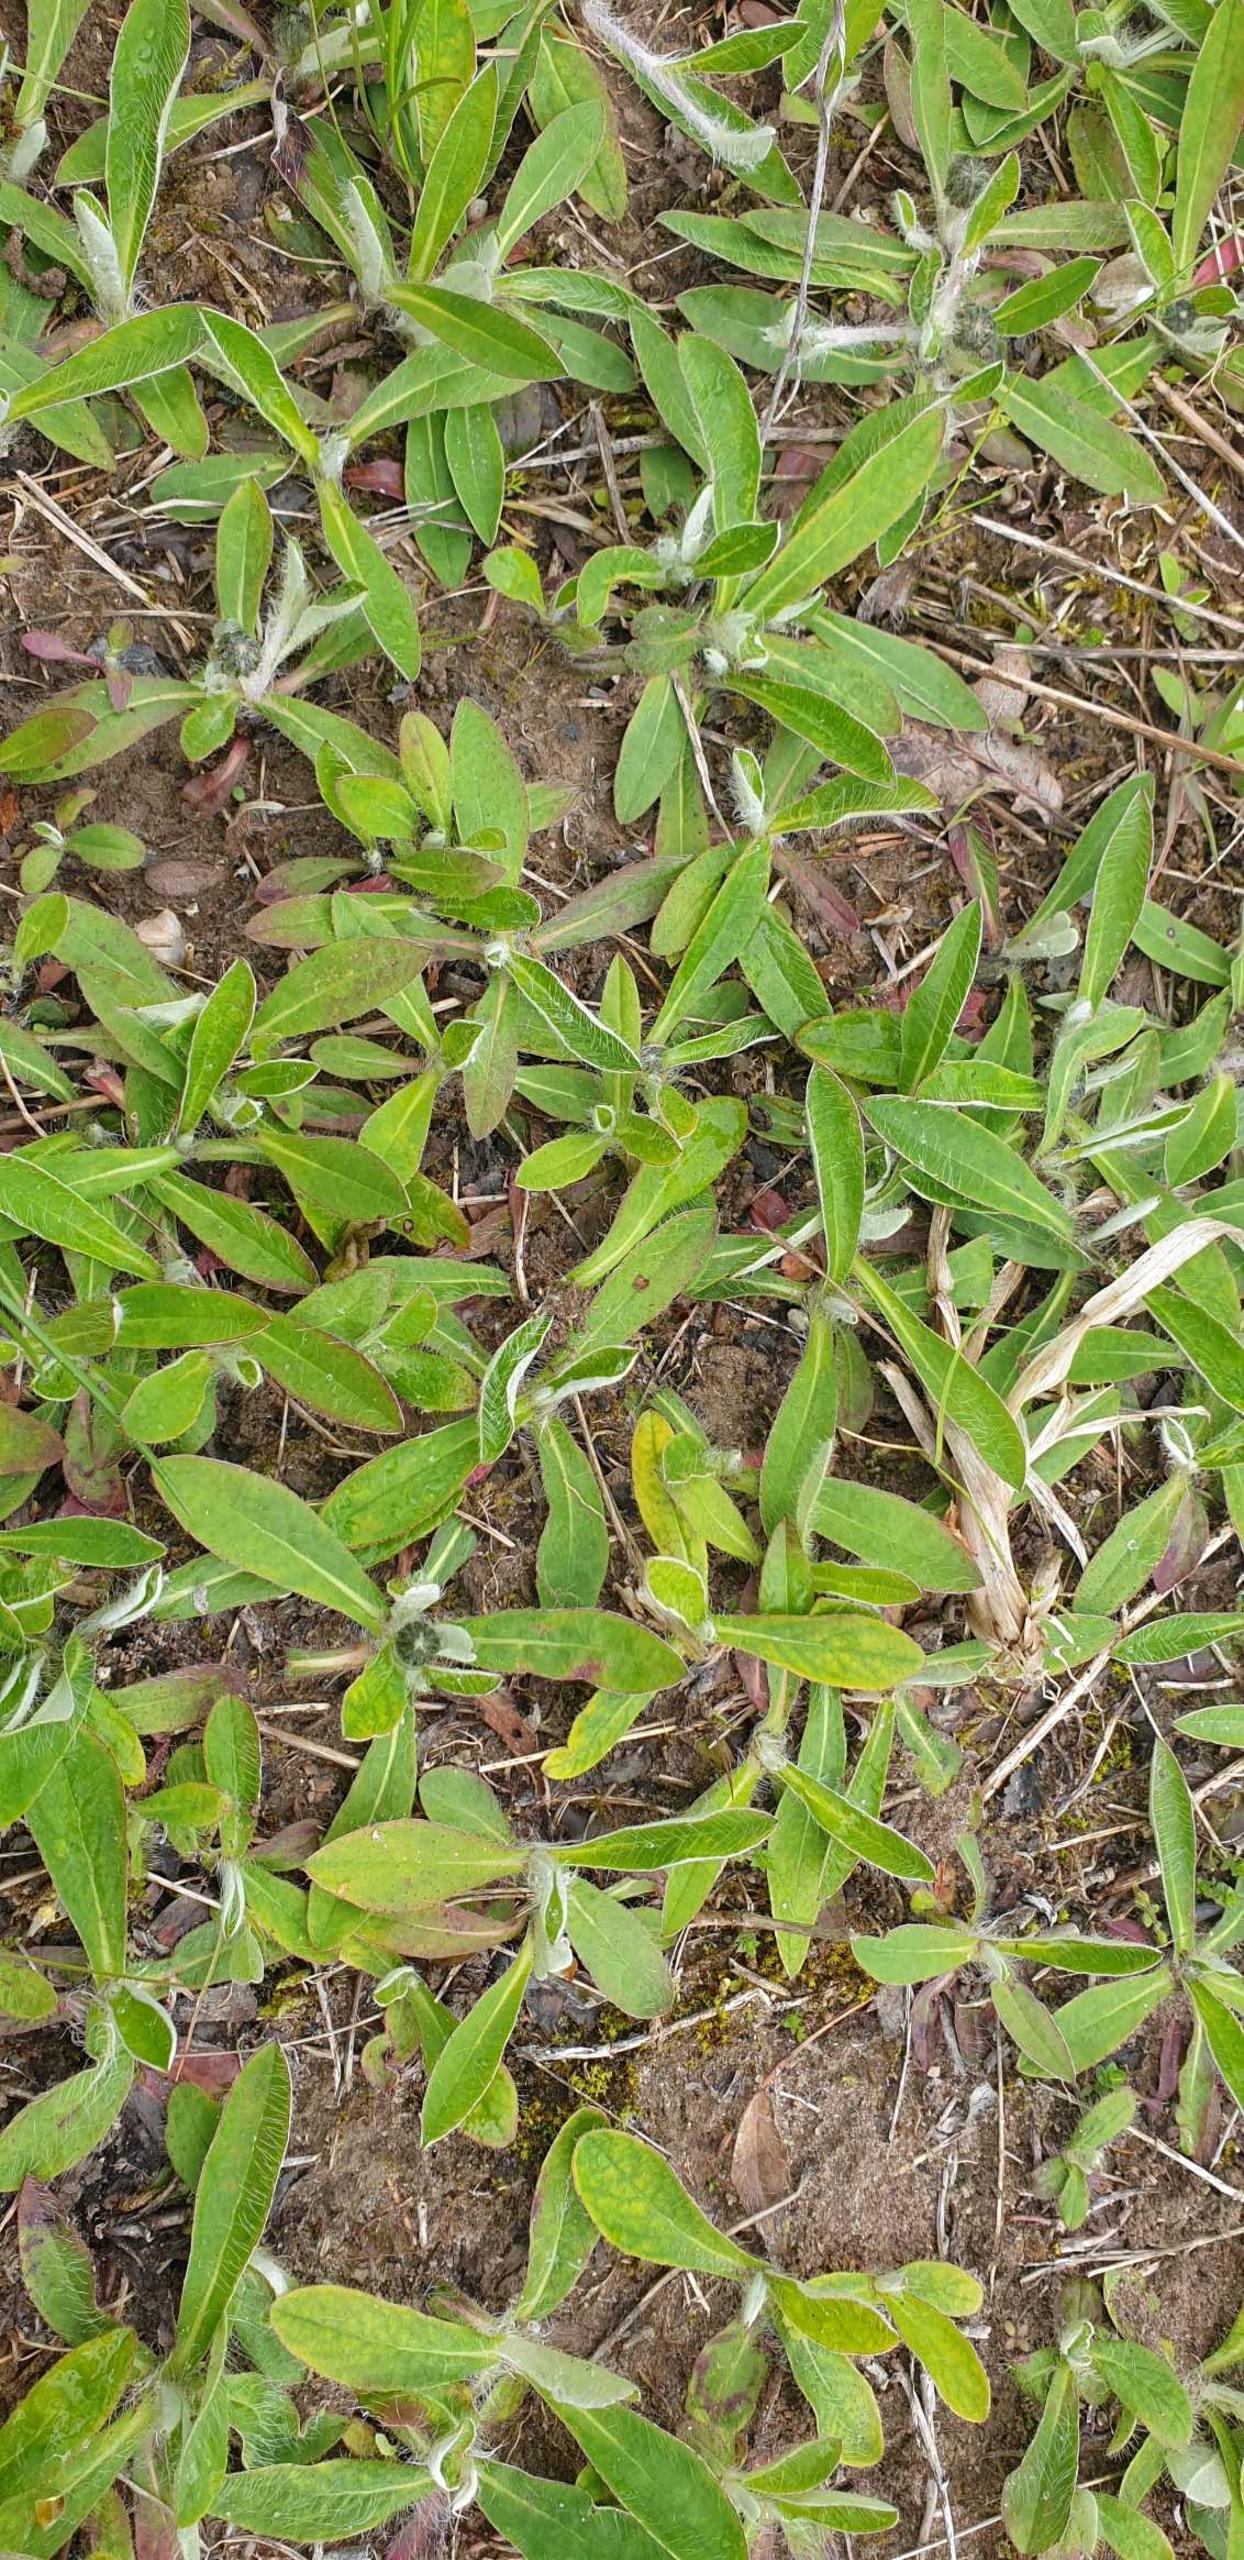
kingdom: Plantae
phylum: Tracheophyta
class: Magnoliopsida
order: Asterales
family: Asteraceae
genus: Pilosella
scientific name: Pilosella officinarum
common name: Håret høgeurt
